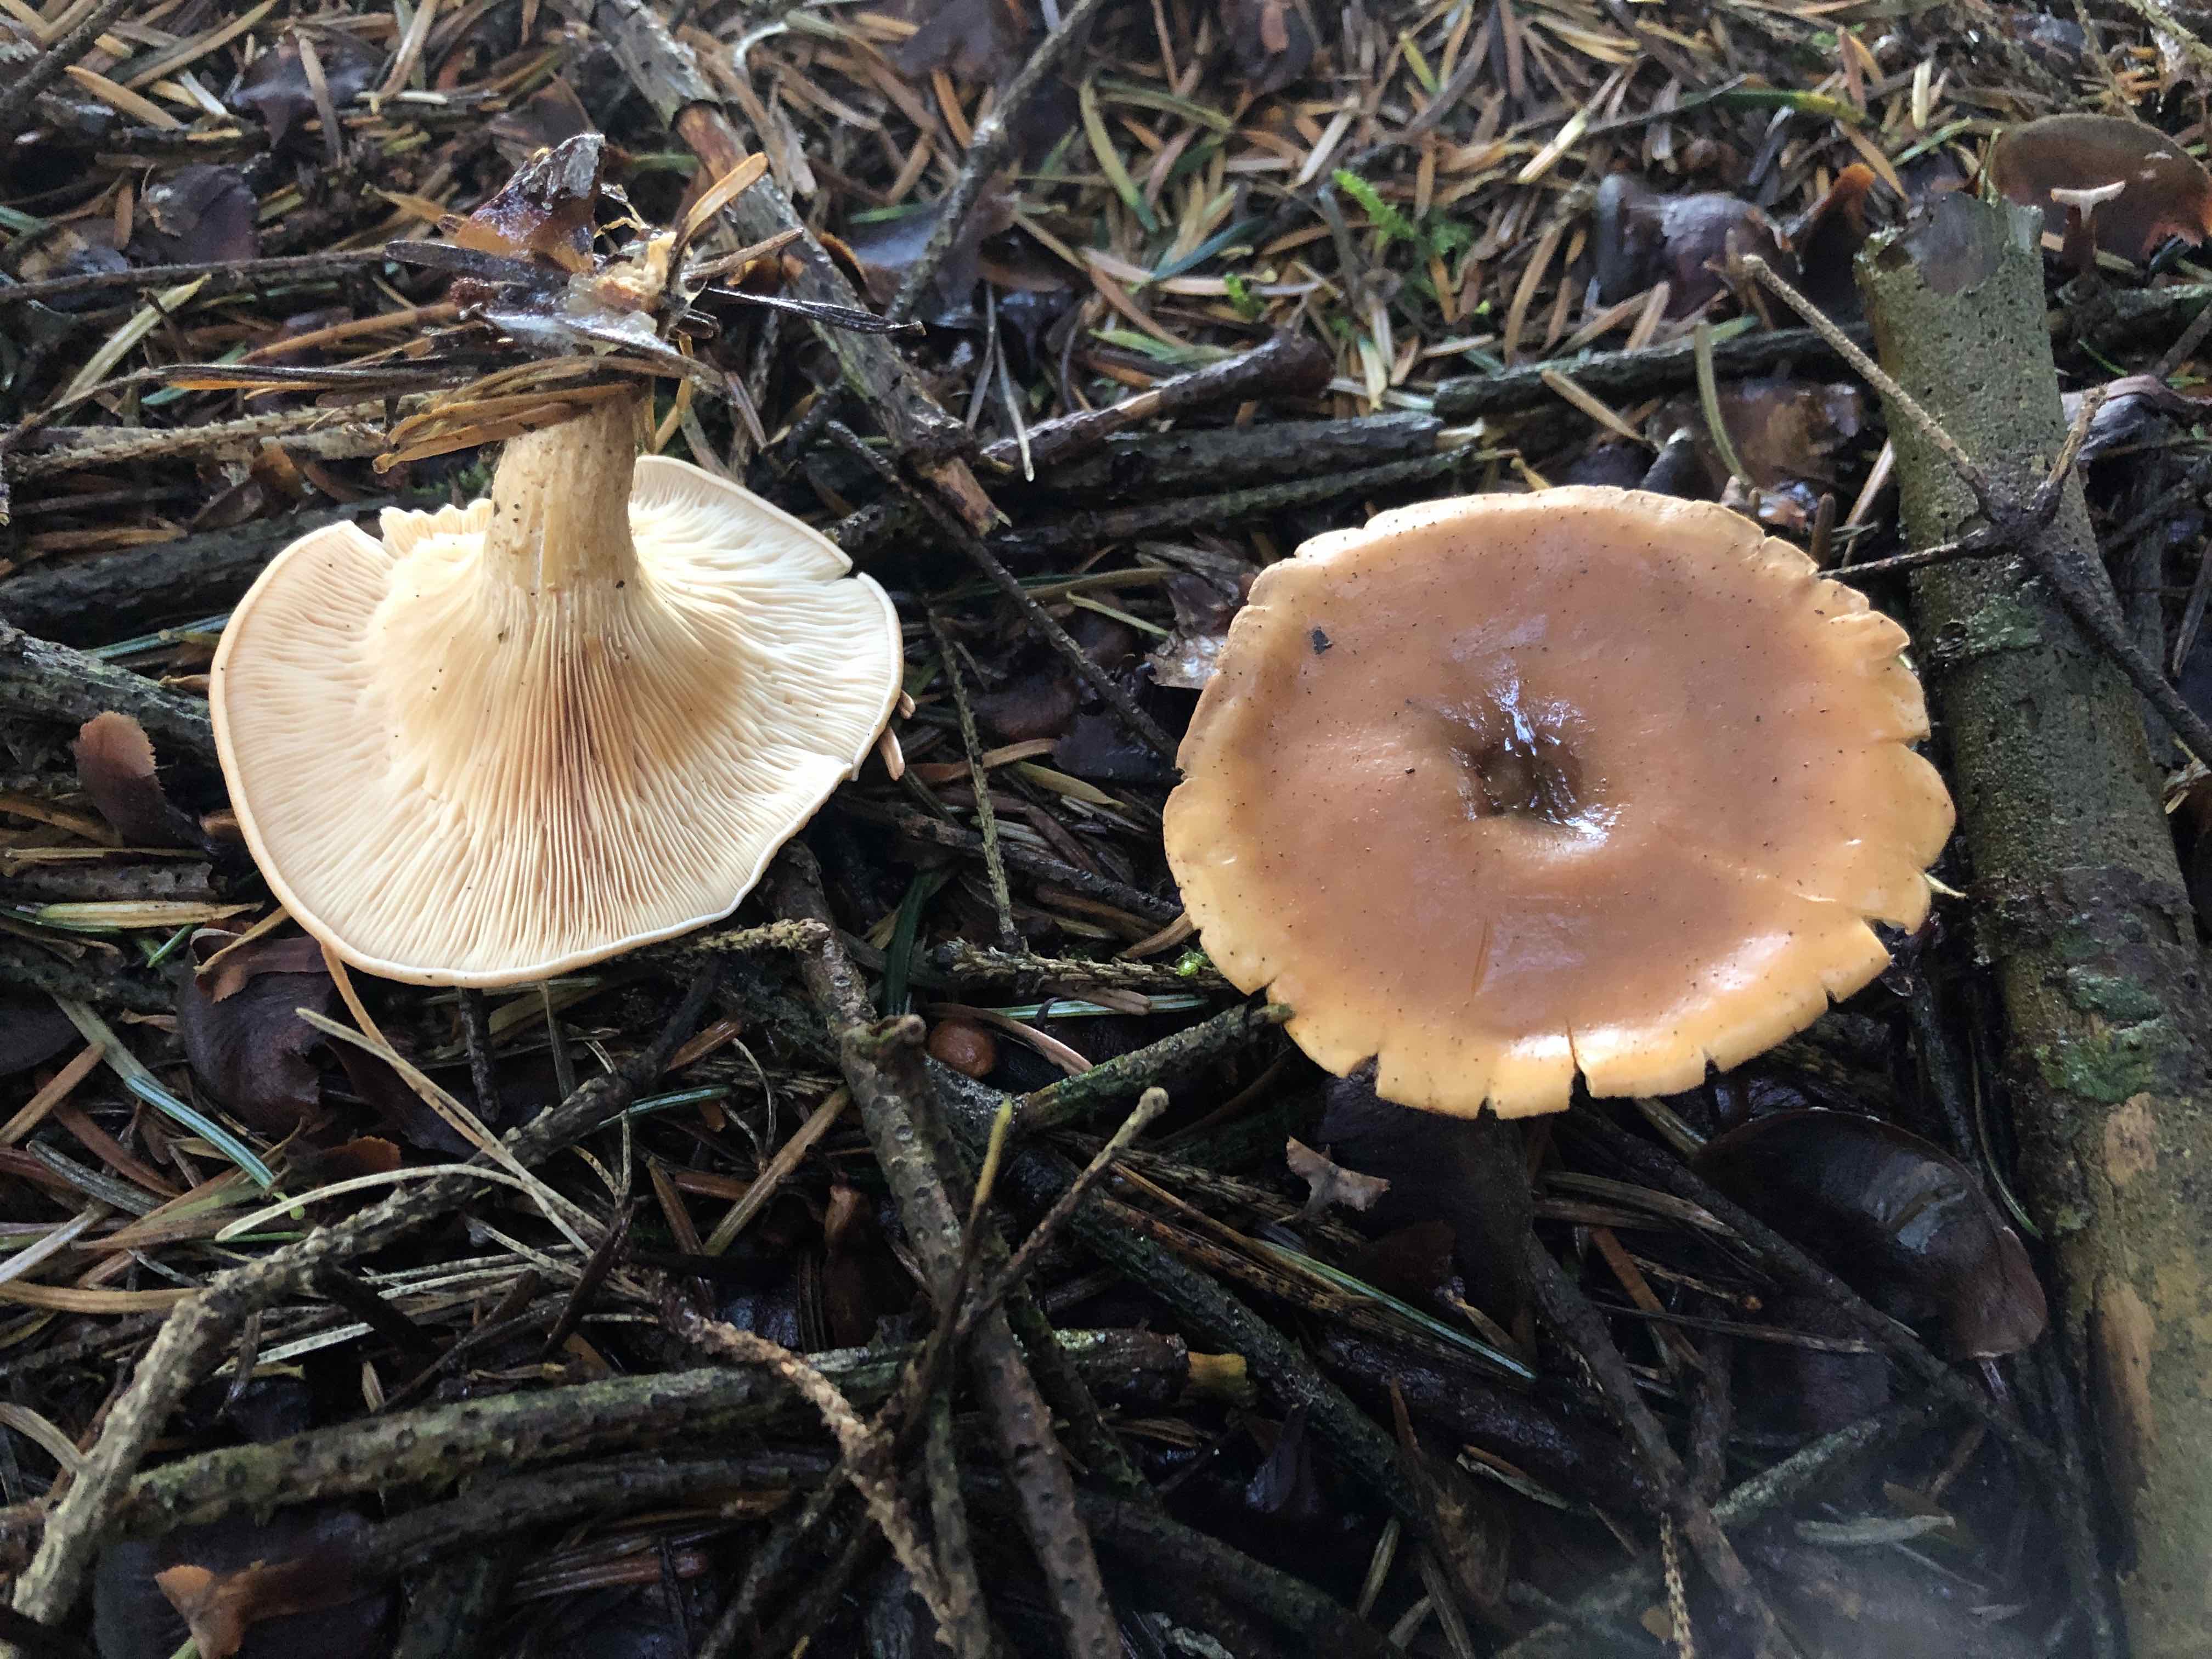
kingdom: Fungi
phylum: Basidiomycota
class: Agaricomycetes
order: Agaricales
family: Tricholomataceae
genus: Paralepista
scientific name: Paralepista flaccida
